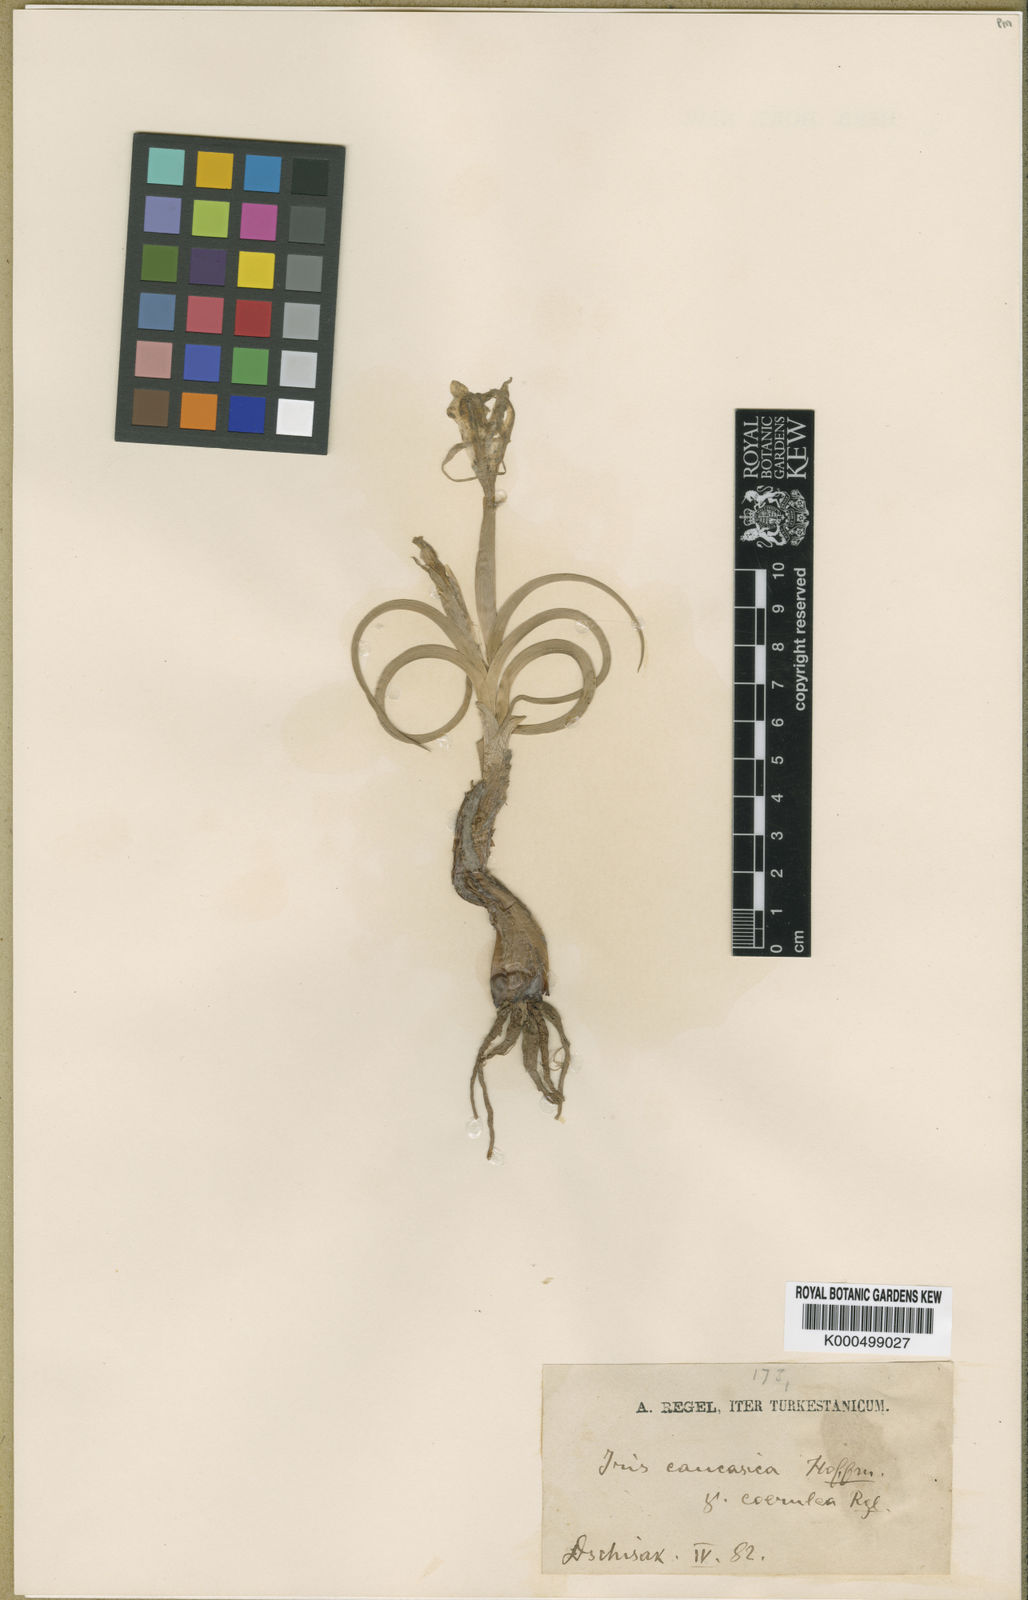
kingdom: Plantae
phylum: Tracheophyta
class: Liliopsida
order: Asparagales
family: Iridaceae
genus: Iris
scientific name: Iris albomarginata
